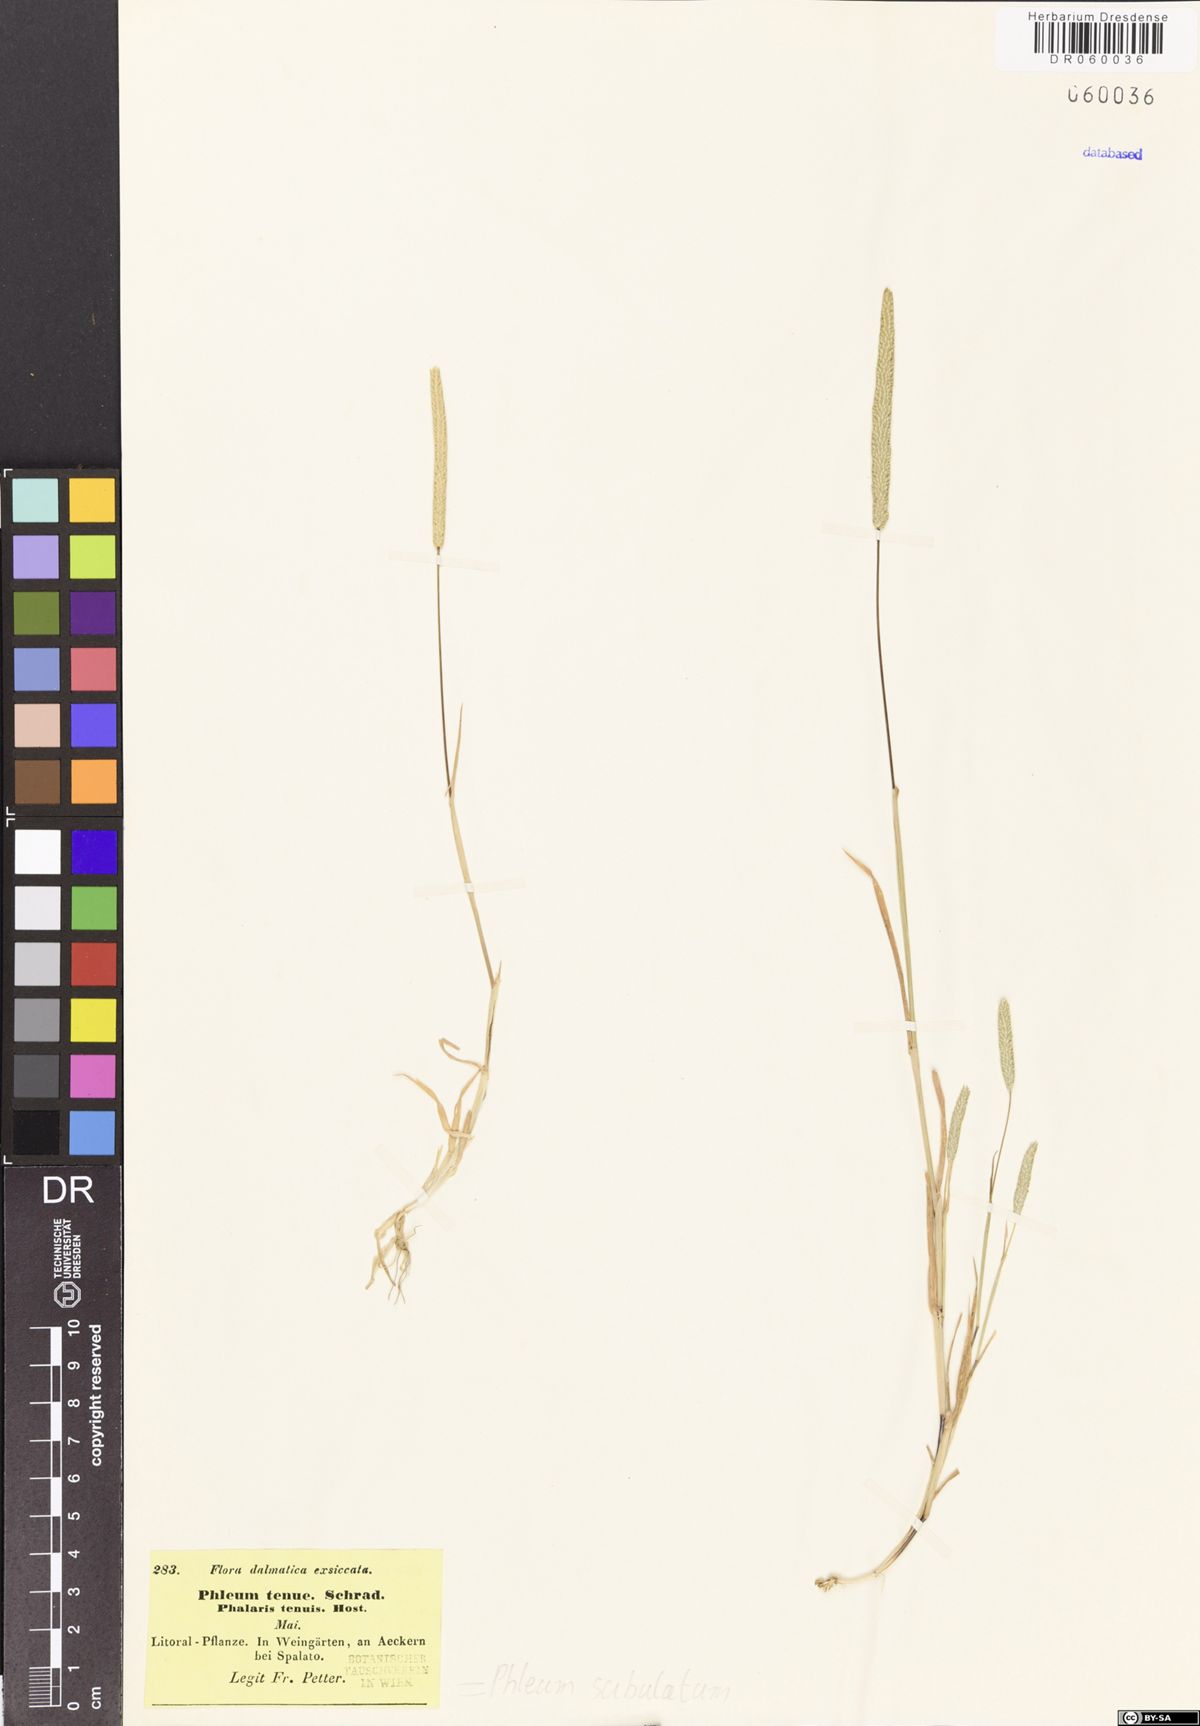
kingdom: Plantae
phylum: Tracheophyta
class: Liliopsida
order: Poales
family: Poaceae
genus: Phleum
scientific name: Phleum subulatum
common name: Italian timothy
